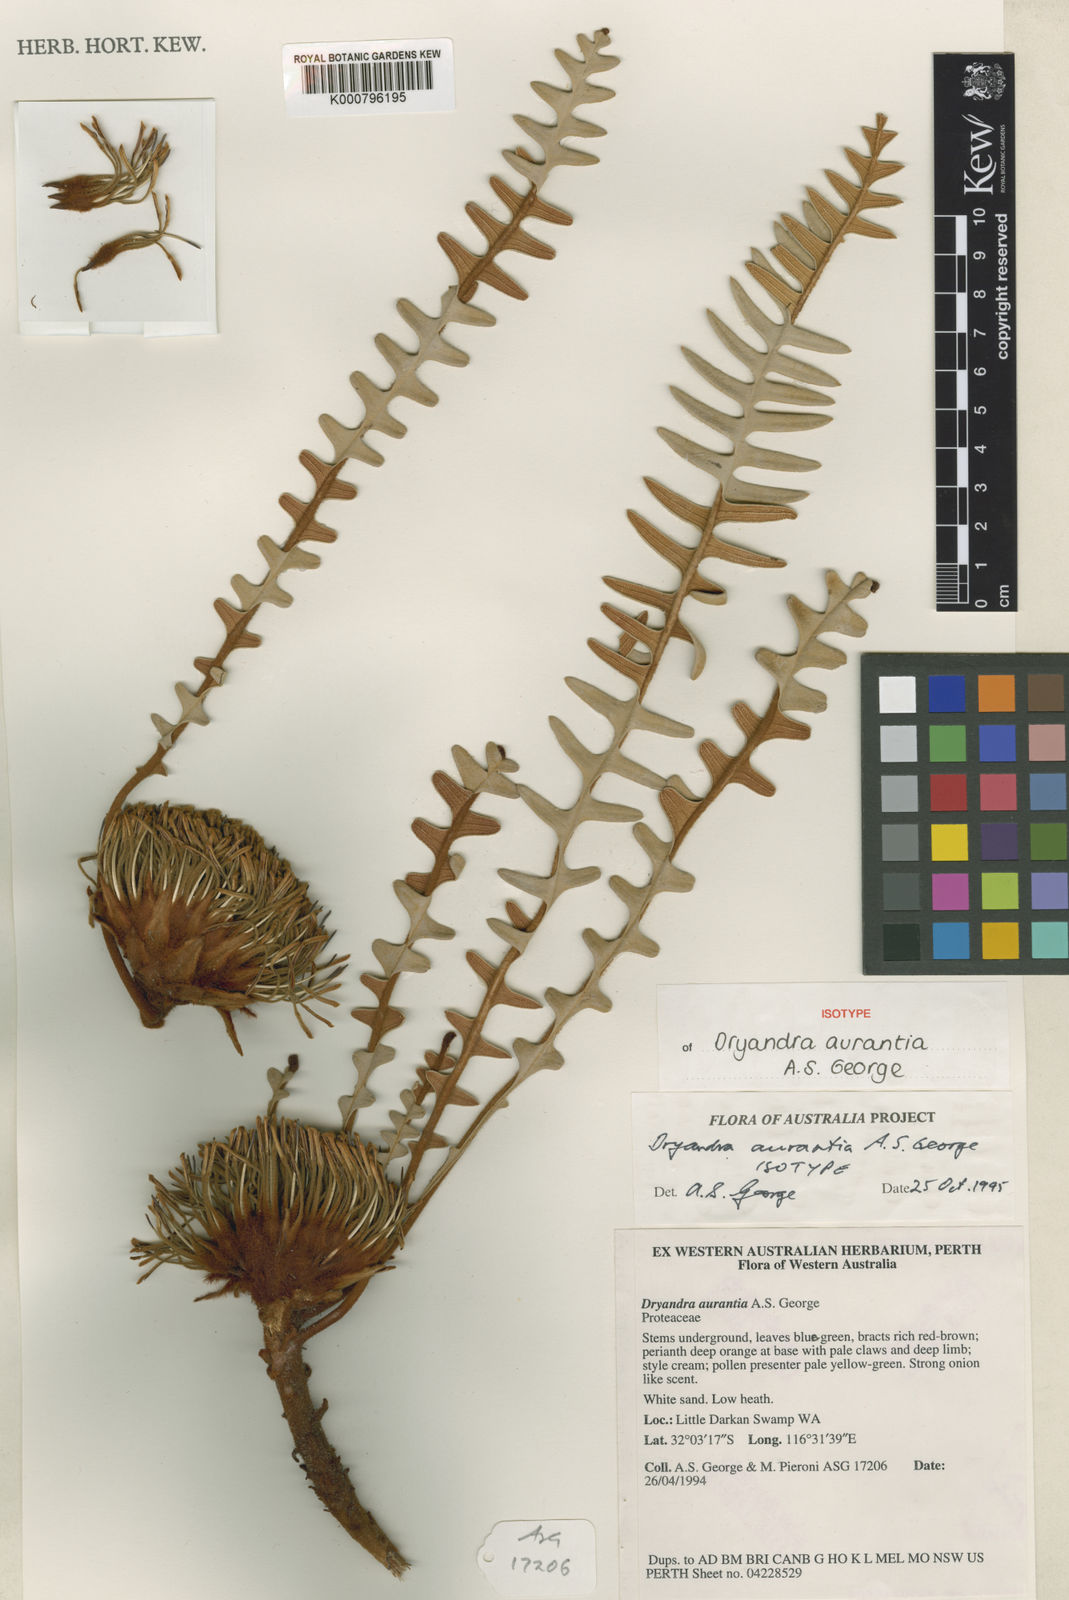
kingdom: Plantae
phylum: Tracheophyta
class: Magnoliopsida
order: Proteales
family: Proteaceae
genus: Banksia
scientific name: Banksia aurantia
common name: Orange dryandra
